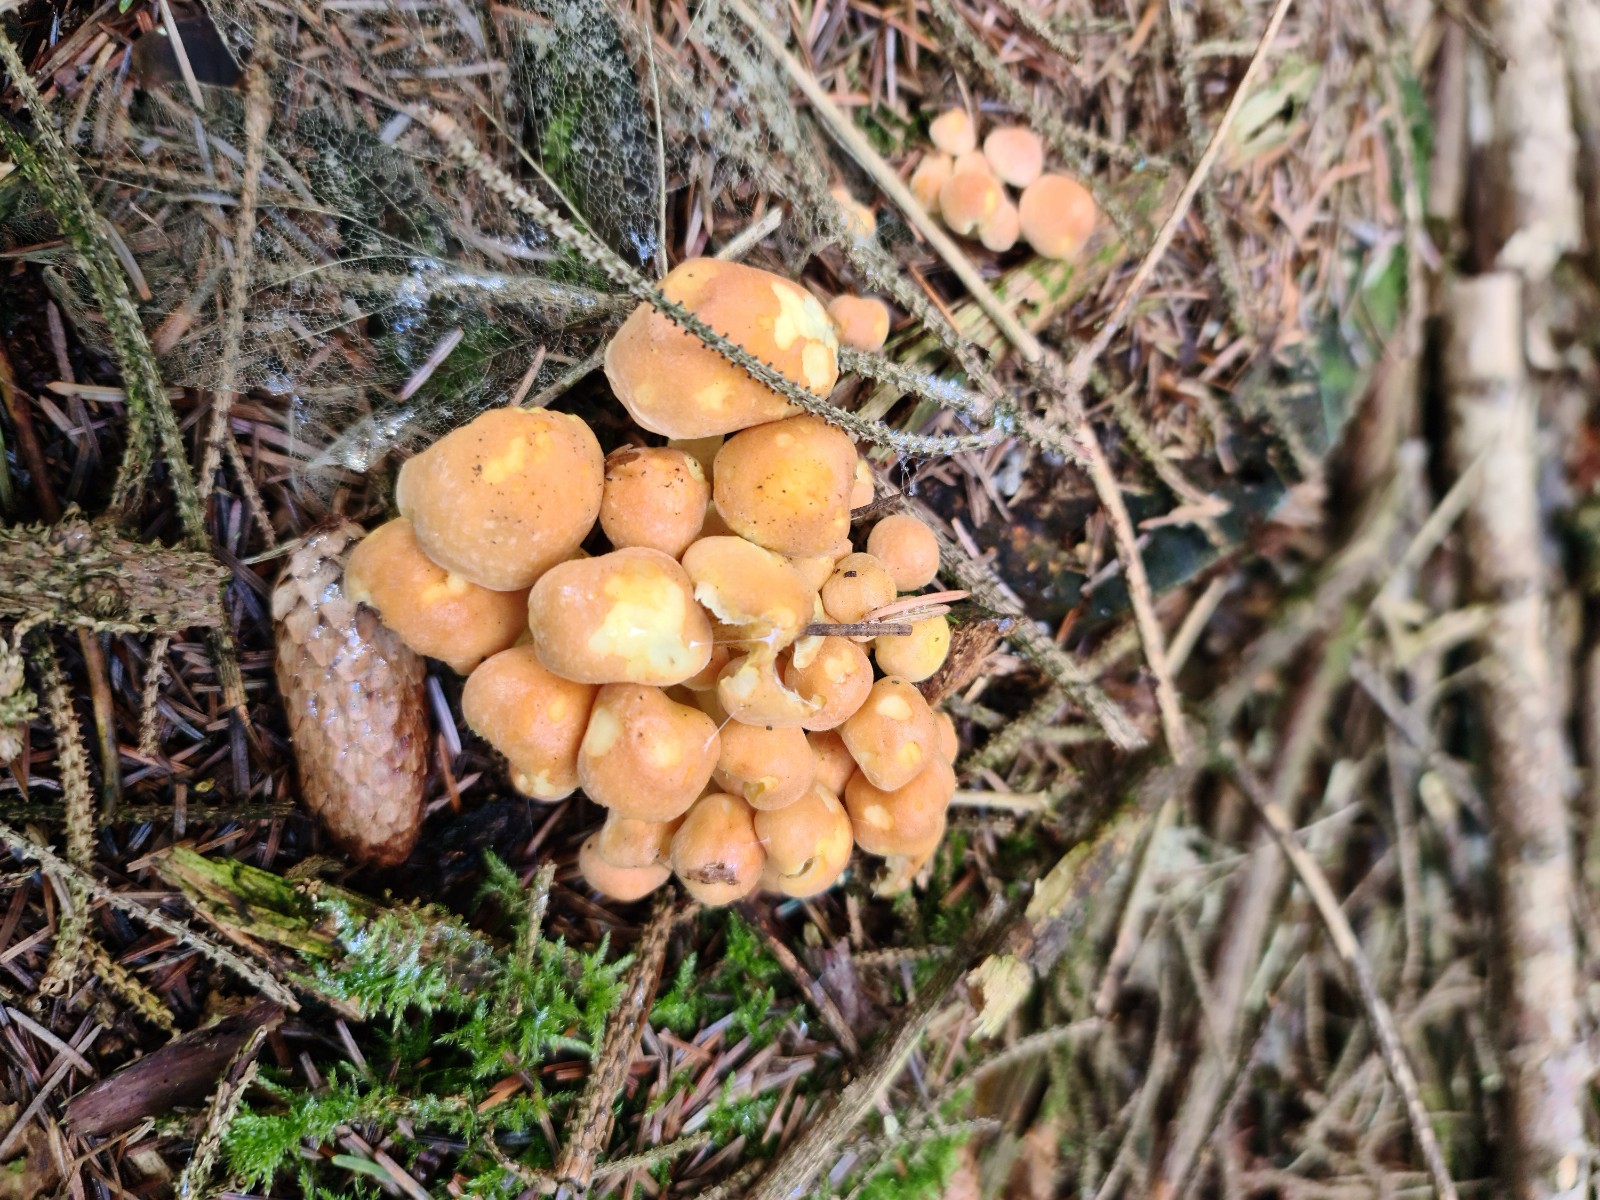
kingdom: Fungi
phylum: Basidiomycota
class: Agaricomycetes
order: Agaricales
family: Strophariaceae
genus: Hypholoma
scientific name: Hypholoma fasciculare
